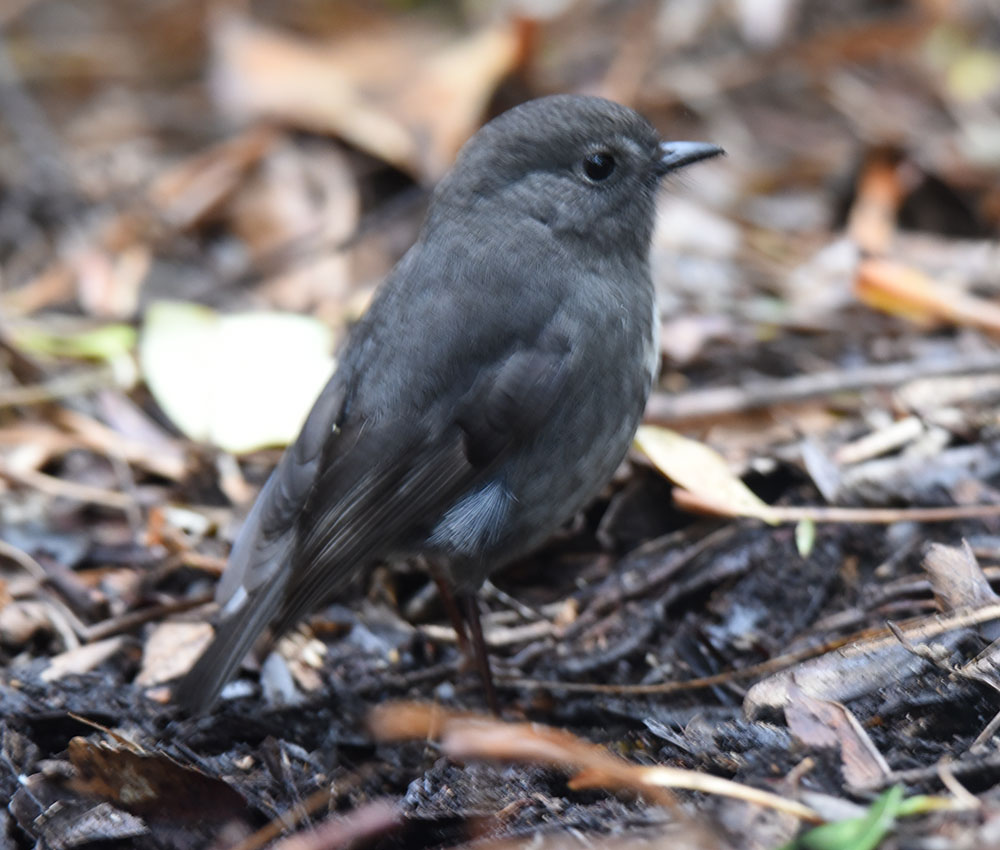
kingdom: Animalia
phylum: Chordata
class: Aves
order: Passeriformes
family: Petroicidae
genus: Petroica
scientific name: Petroica australis
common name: New zealand robin
